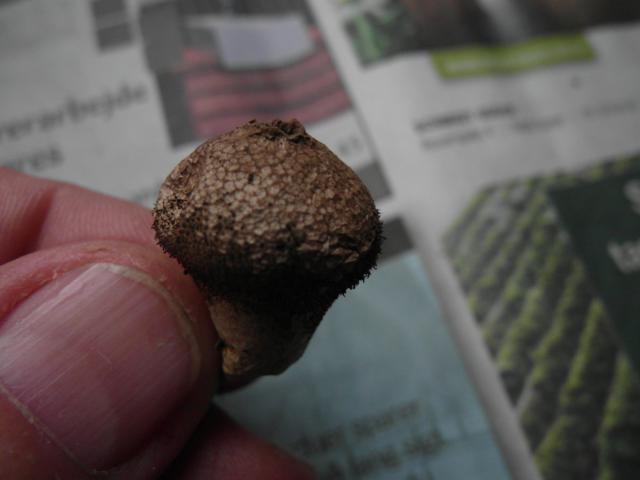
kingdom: Fungi
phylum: Basidiomycota
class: Agaricomycetes
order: Agaricales
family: Lycoperdaceae
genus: Lycoperdon
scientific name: Lycoperdon nigrescens
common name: sortagtig støvbold
